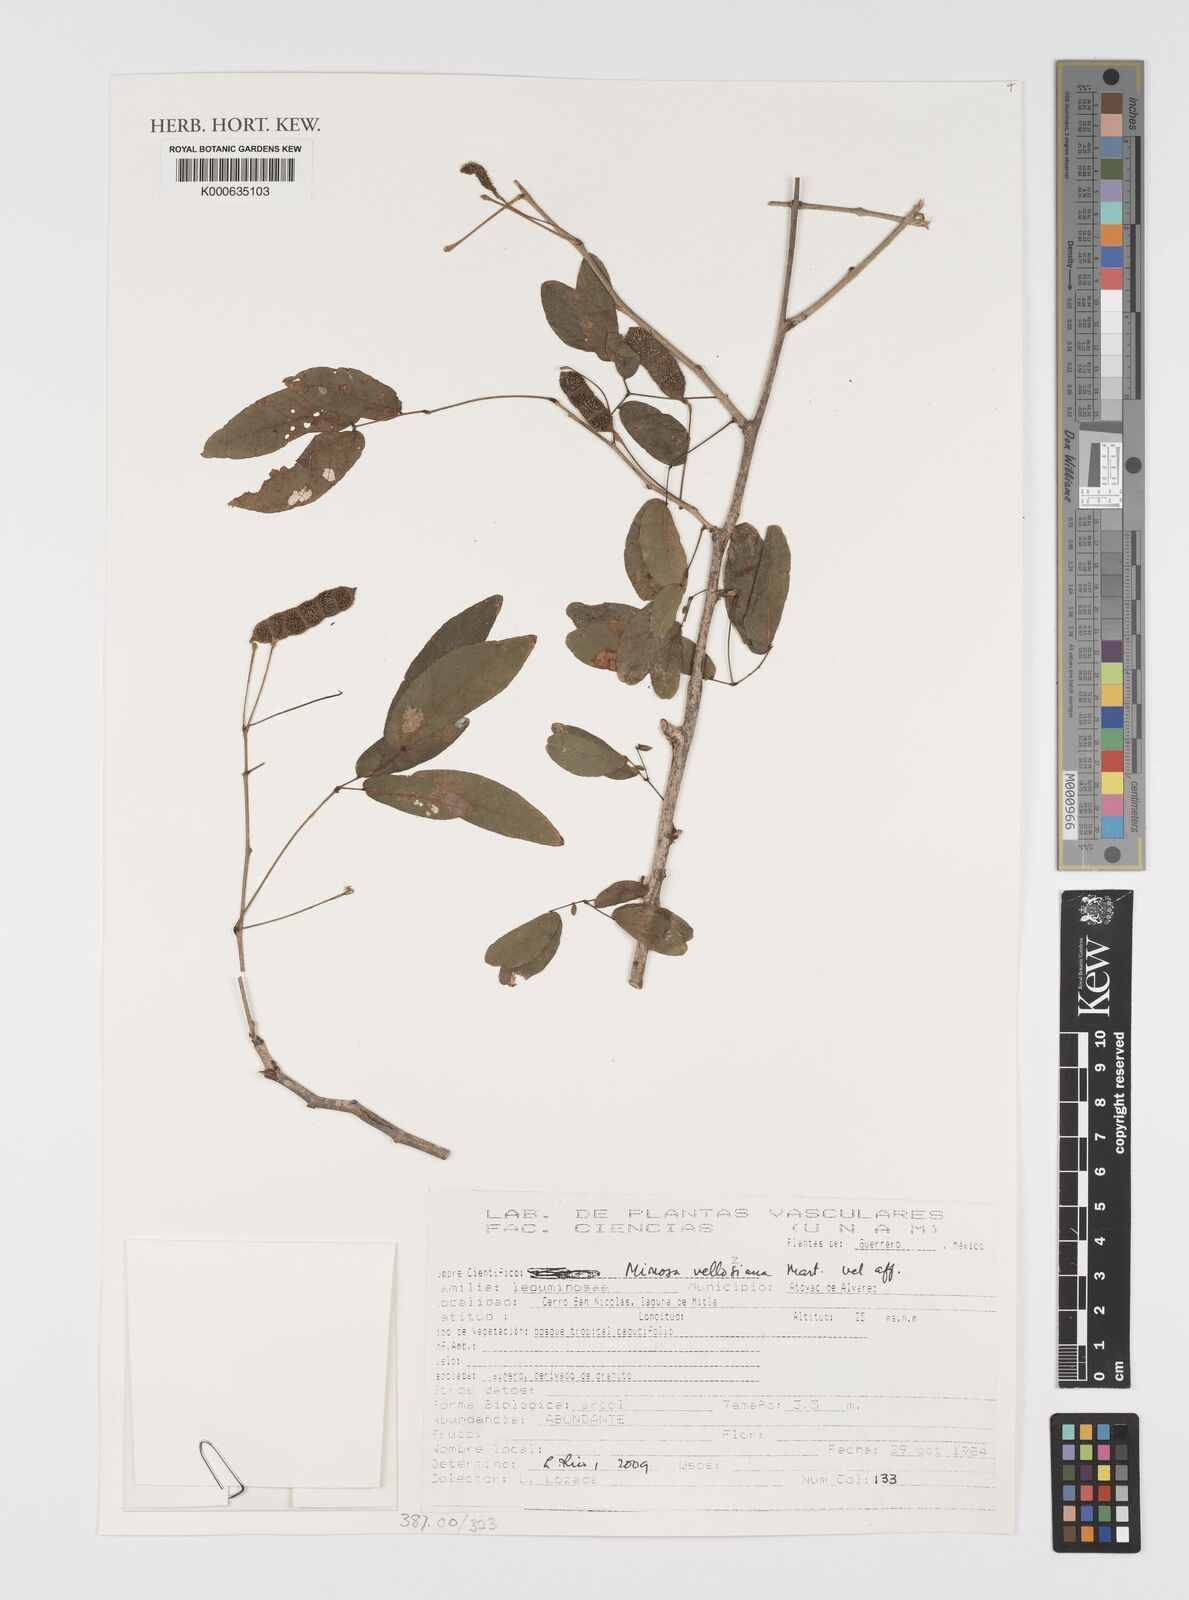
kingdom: Plantae
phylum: Tracheophyta
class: Magnoliopsida
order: Fabales
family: Fabaceae
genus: Mimosa
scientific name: Mimosa
